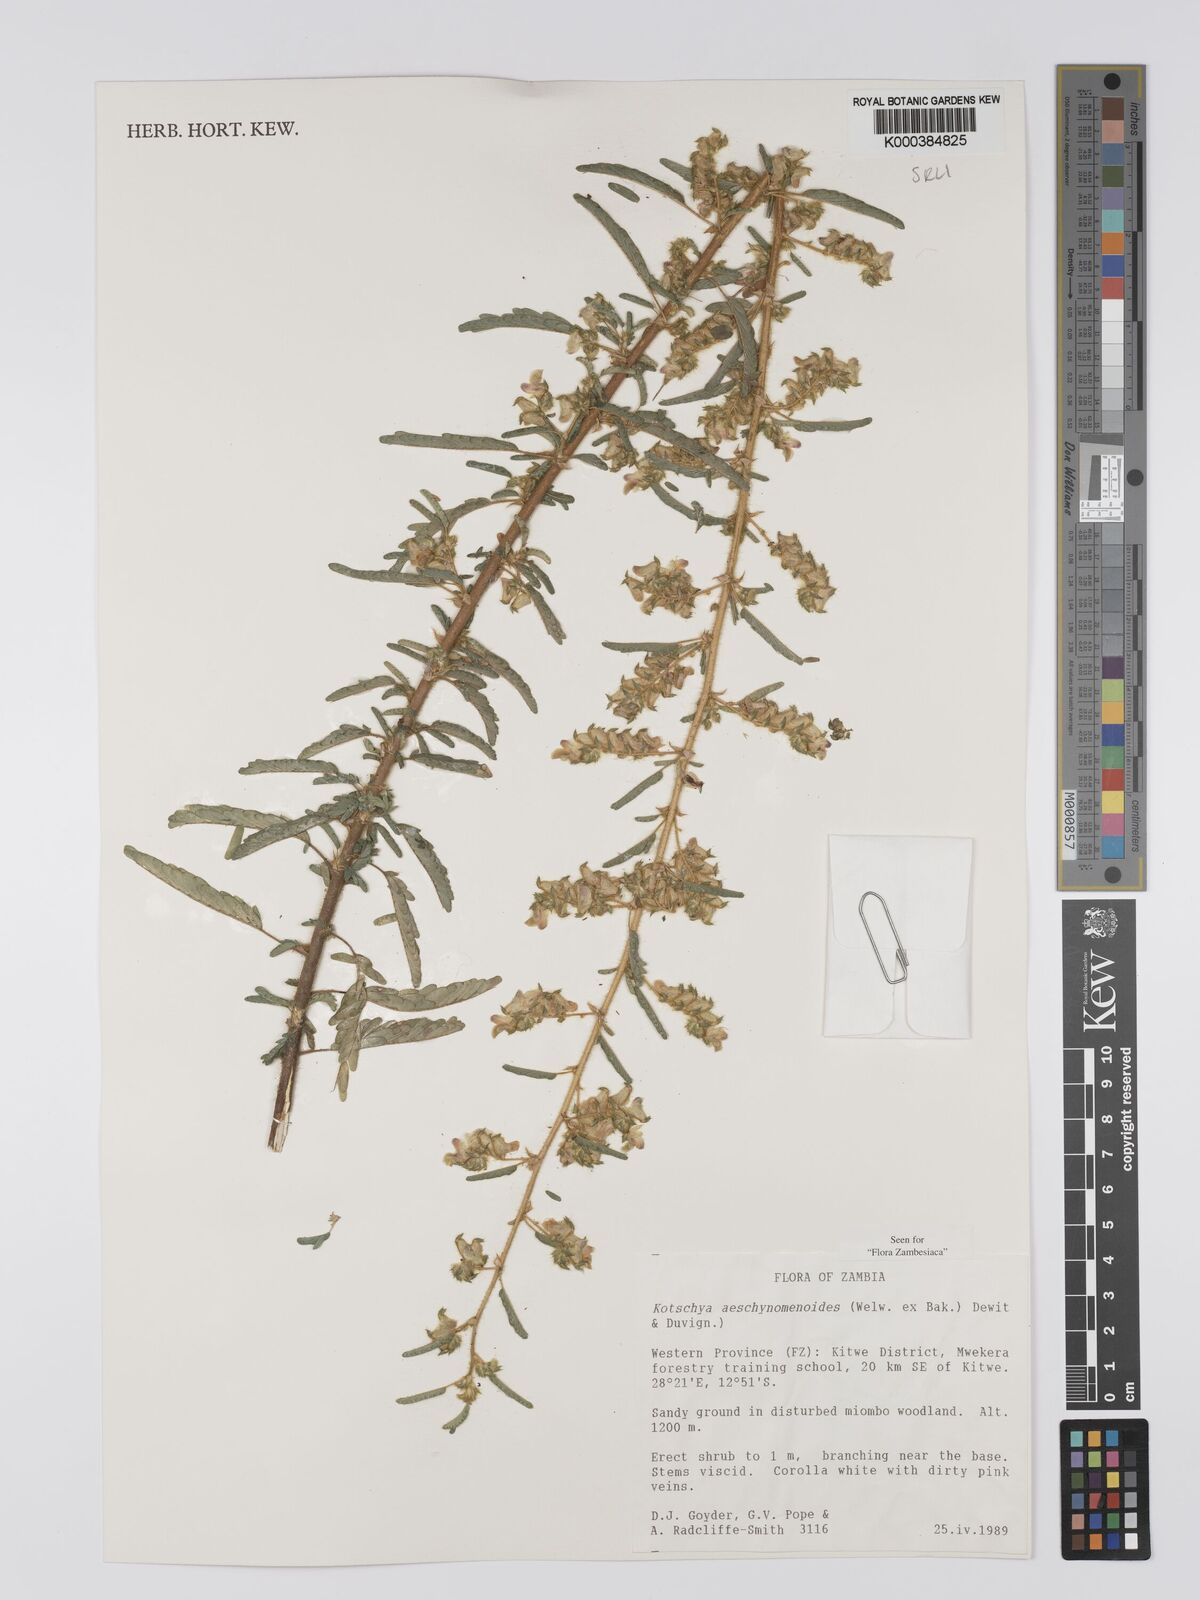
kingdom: Plantae
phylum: Tracheophyta
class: Magnoliopsida
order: Fabales
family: Fabaceae
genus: Kotschya
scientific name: Kotschya aeschynomenoides
